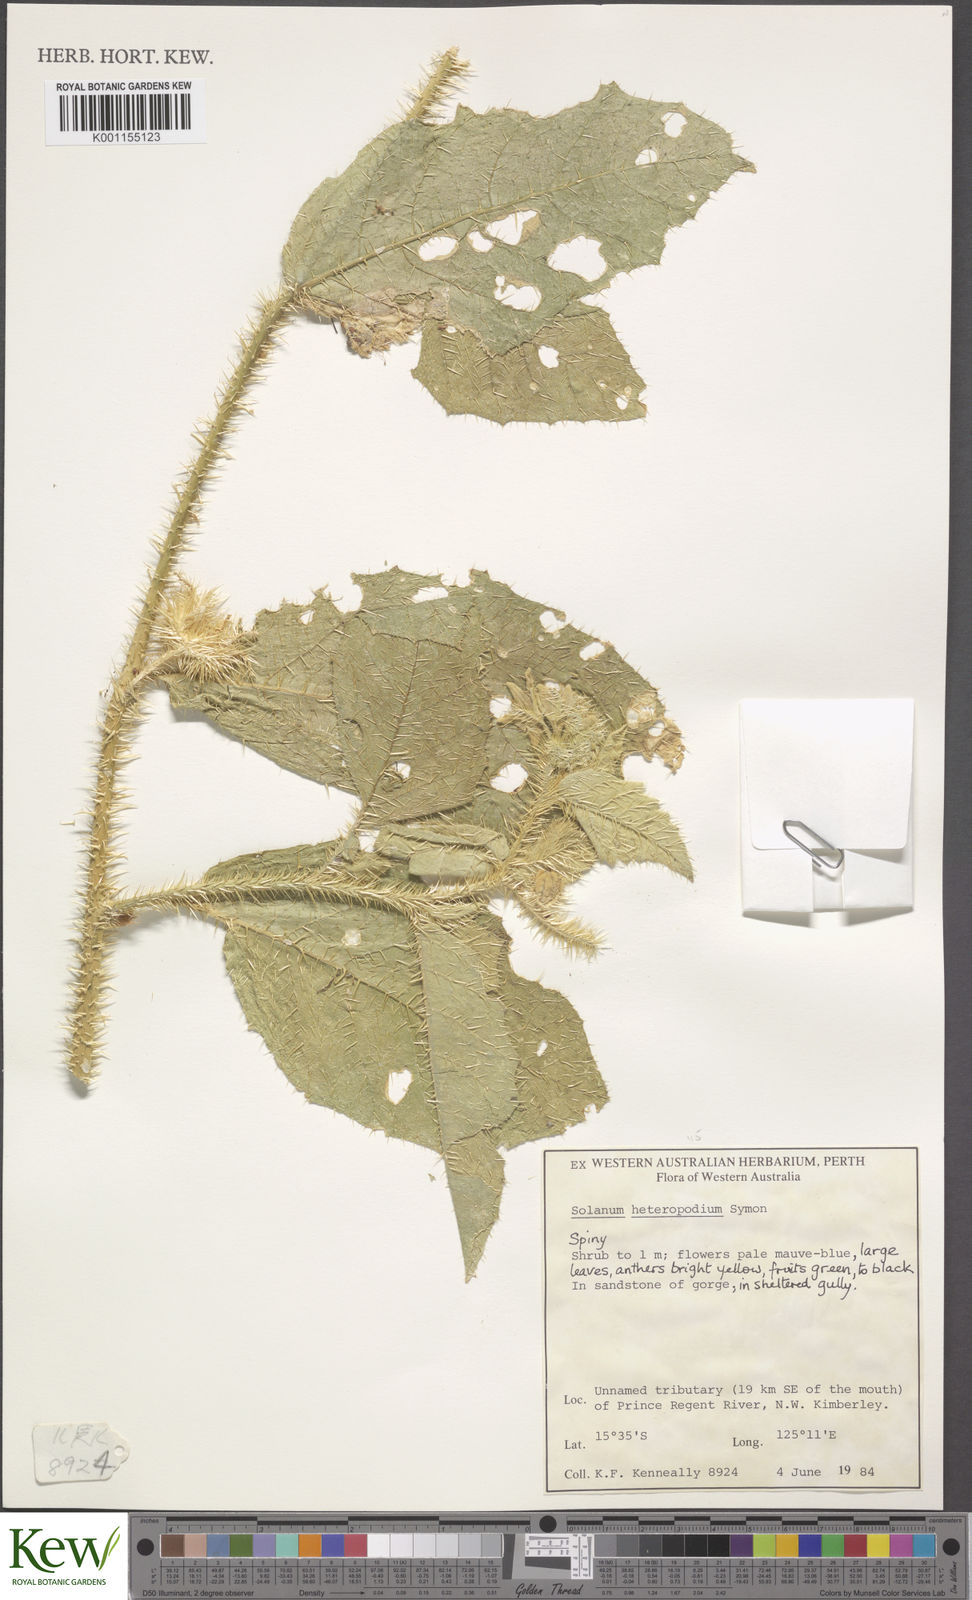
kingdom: Plantae
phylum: Tracheophyta
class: Magnoliopsida
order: Solanales
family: Solanaceae
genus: Solanum
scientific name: Solanum heteropodium
